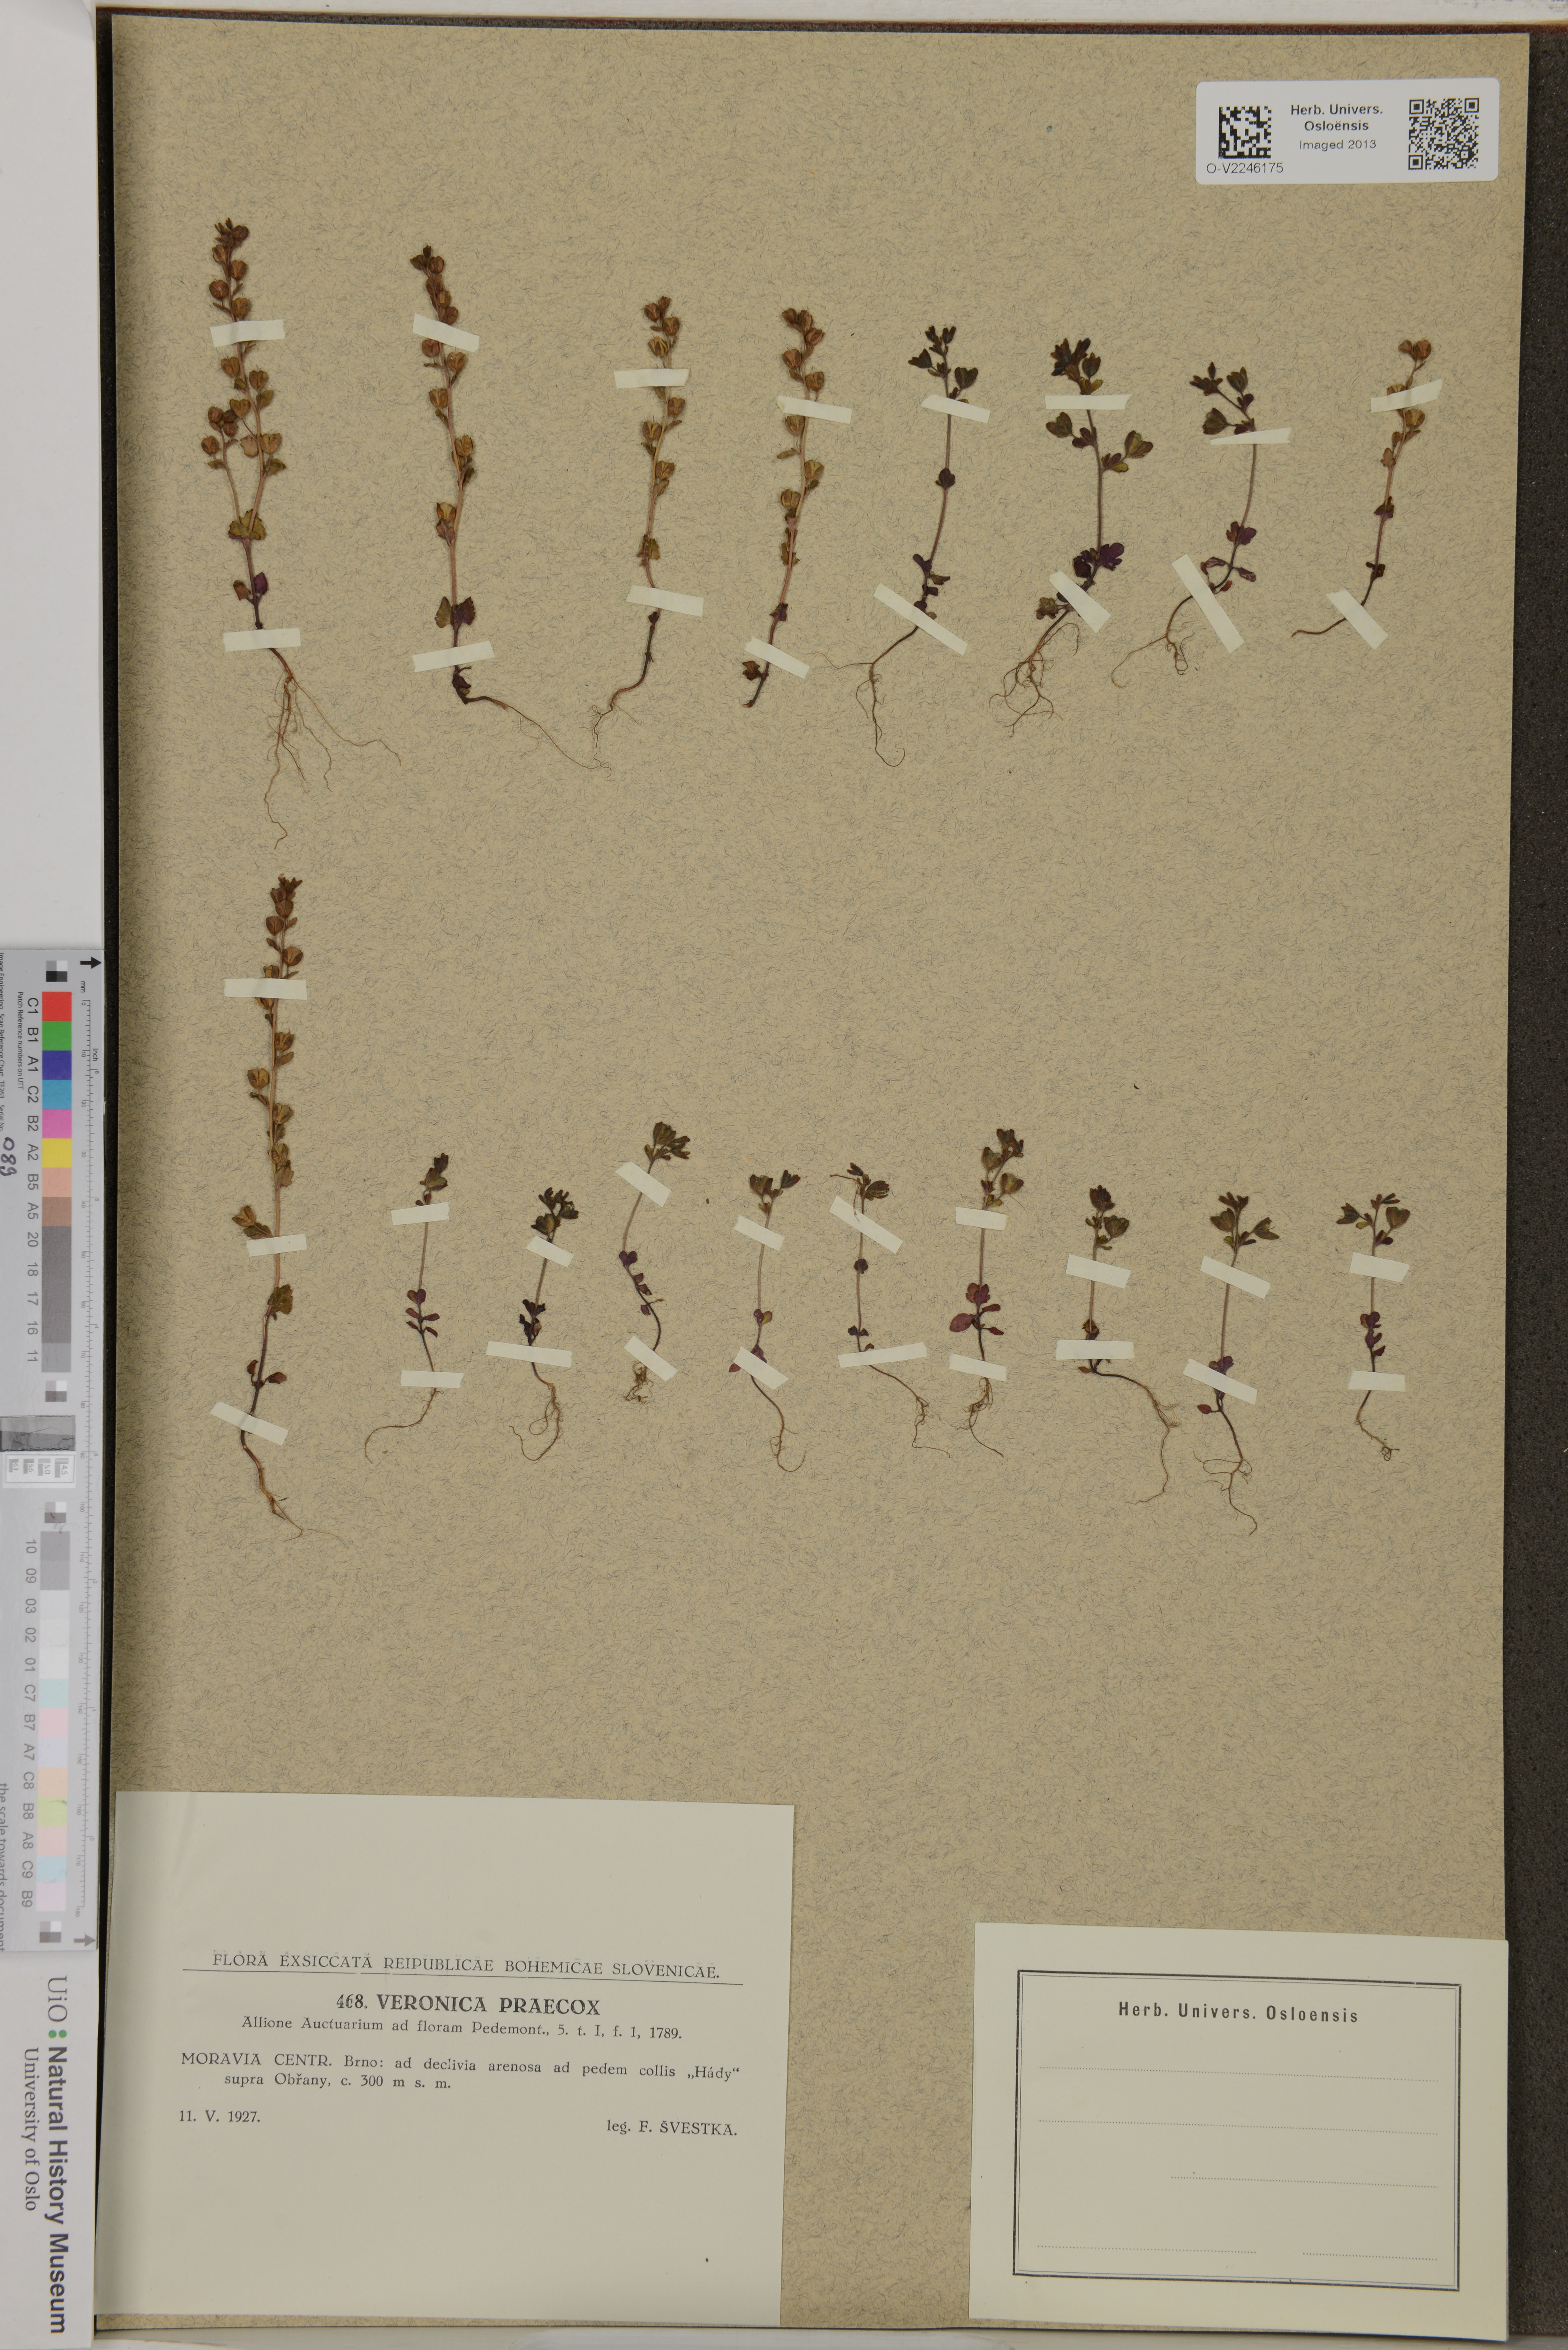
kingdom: Plantae
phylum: Tracheophyta
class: Magnoliopsida
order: Lamiales
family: Plantaginaceae
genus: Veronica
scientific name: Veronica praecox
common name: Breckland speedwell
